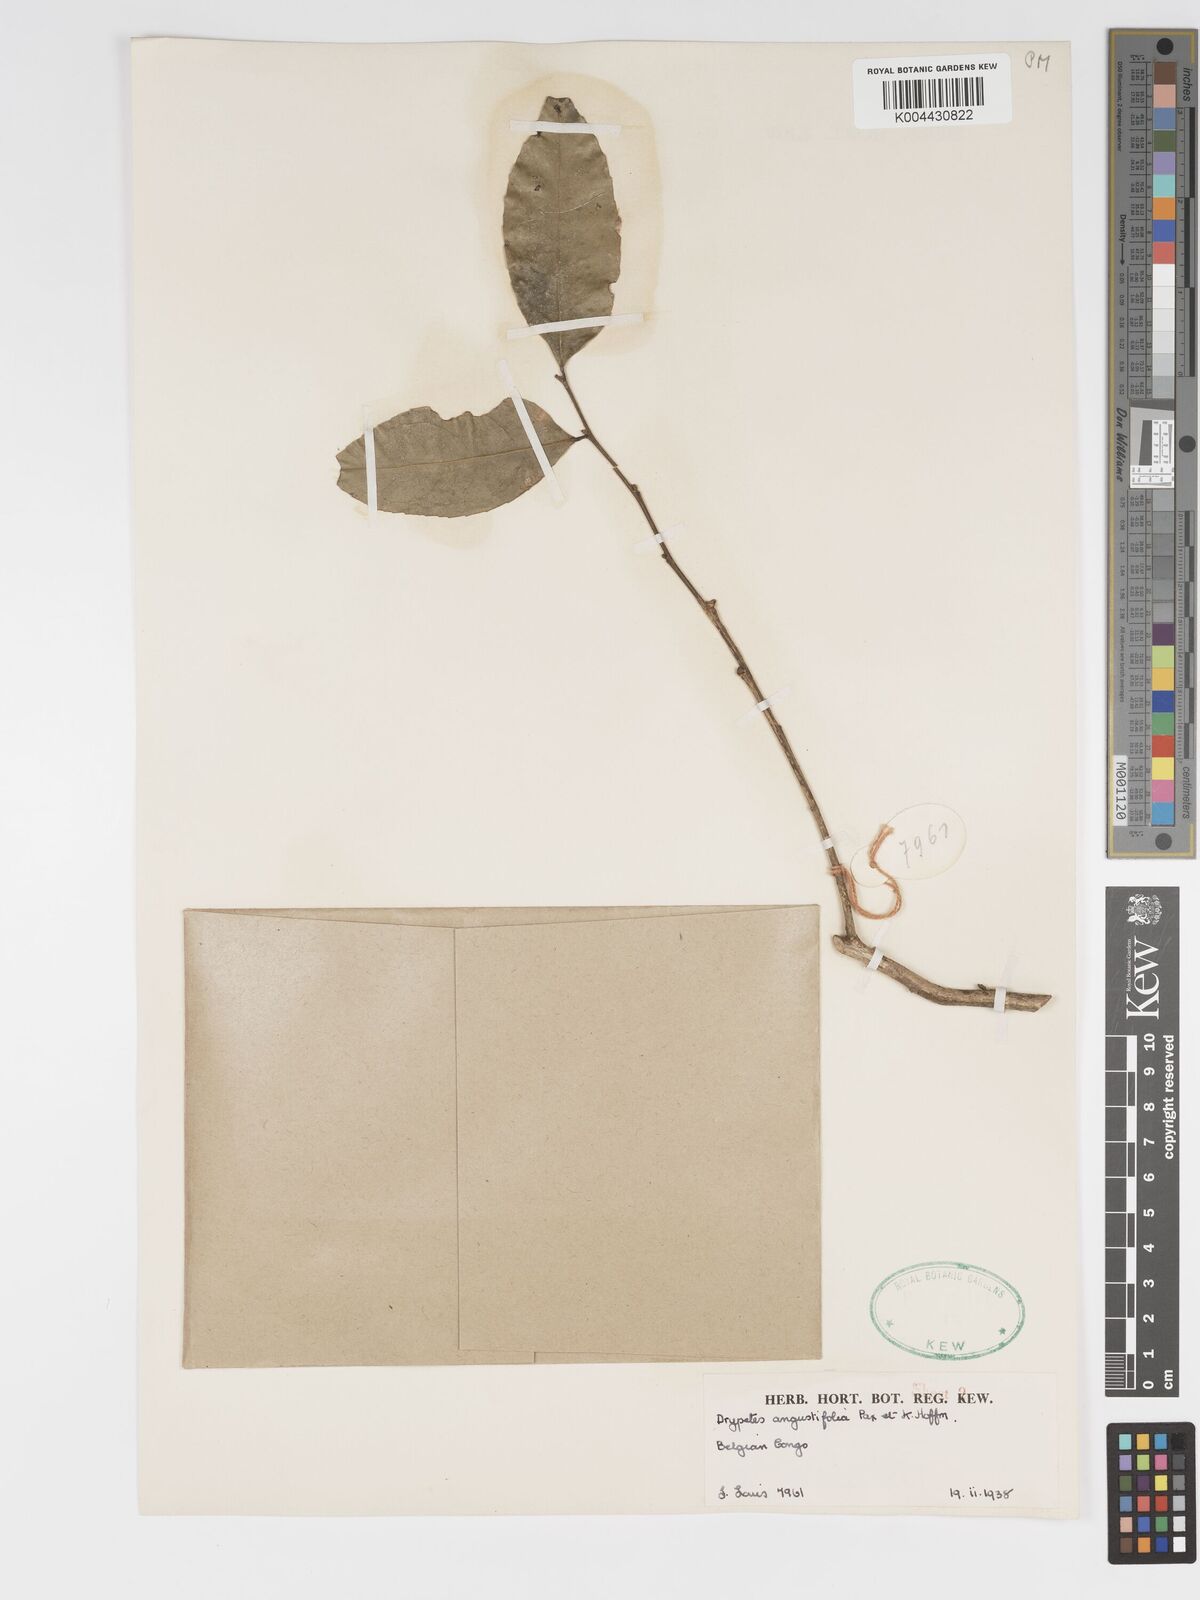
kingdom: Plantae
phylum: Tracheophyta
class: Magnoliopsida
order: Malpighiales
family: Putranjivaceae
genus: Drypetes
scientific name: Drypetes angustifolia
